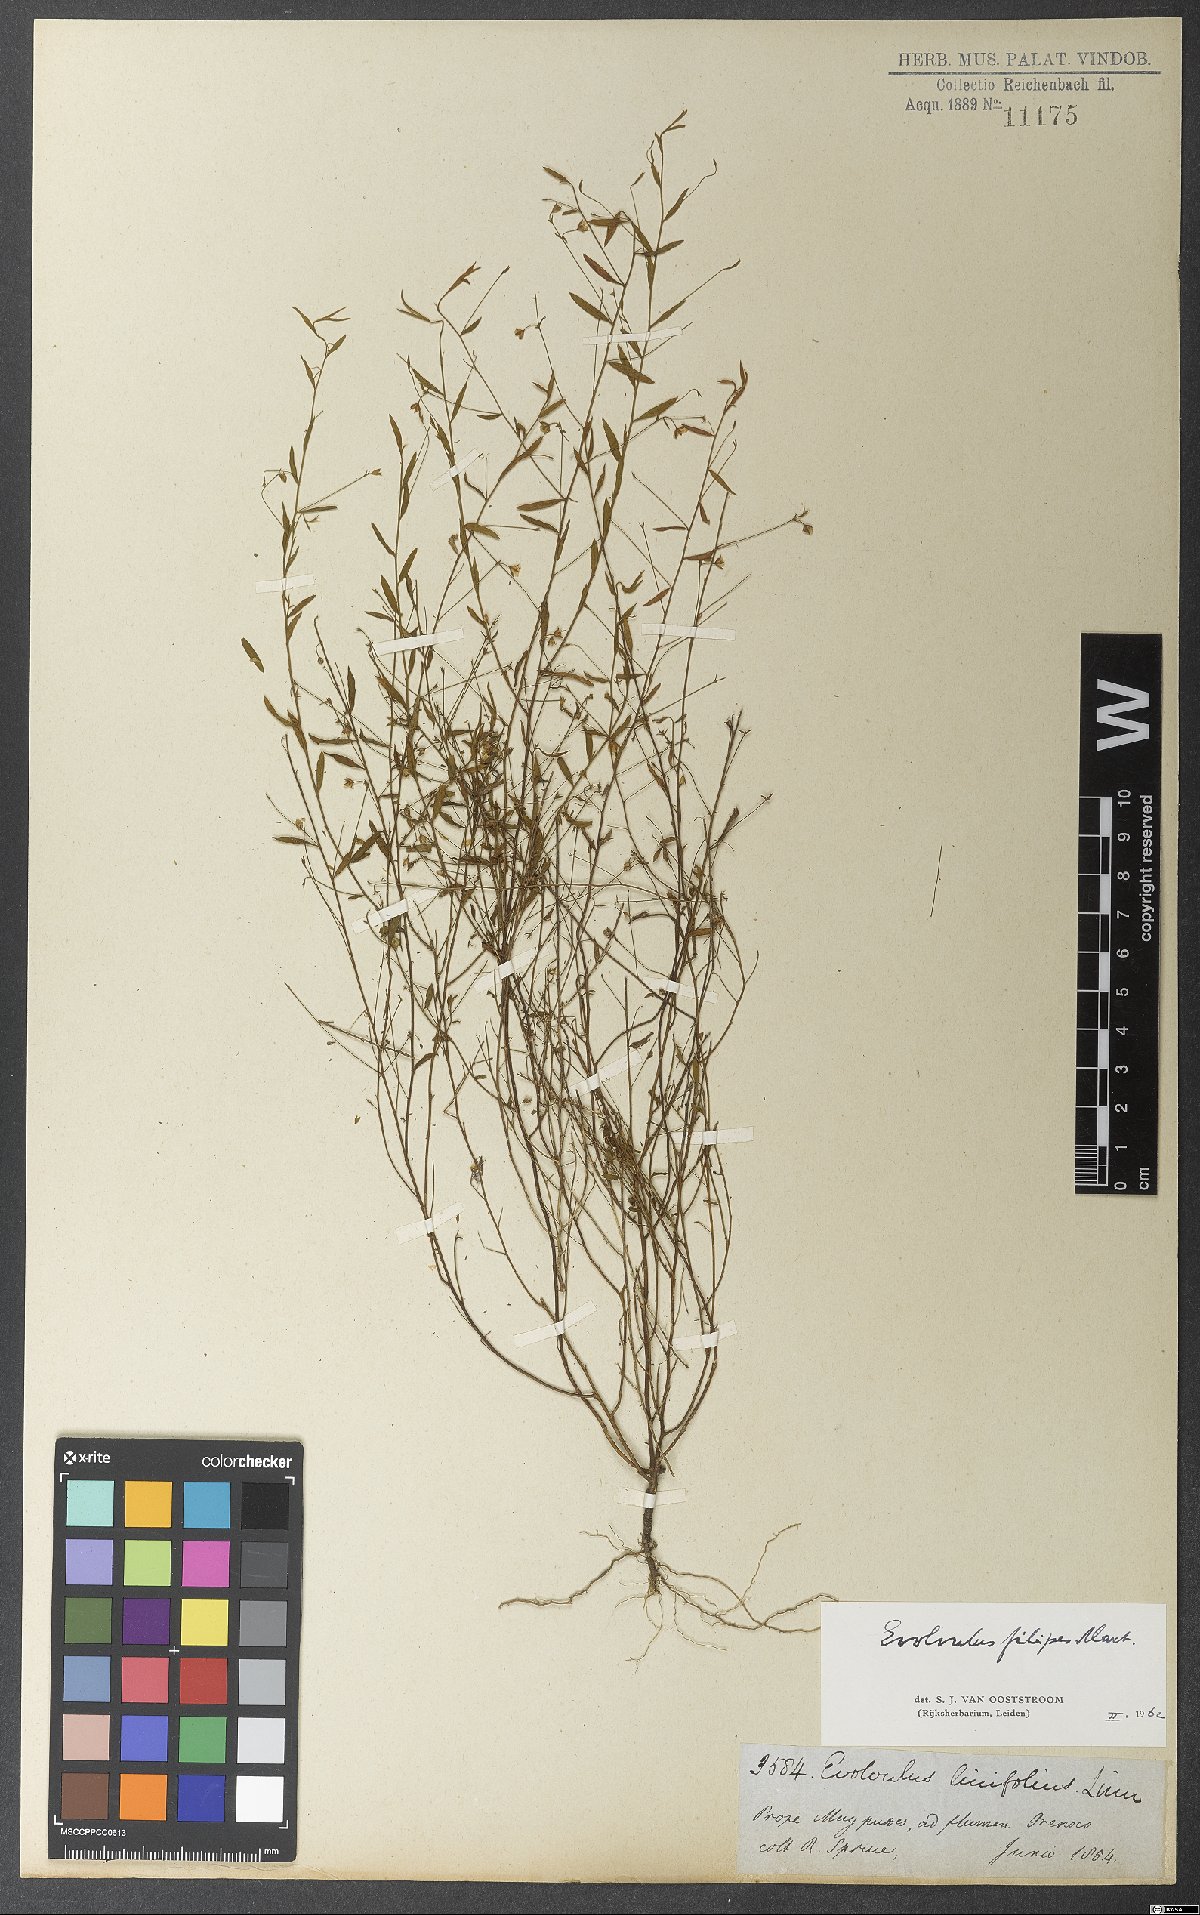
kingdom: Plantae
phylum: Tracheophyta
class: Magnoliopsida
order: Solanales
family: Convolvulaceae
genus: Evolvulus
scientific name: Evolvulus filipes
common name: Maryland dwarf morning-glory
